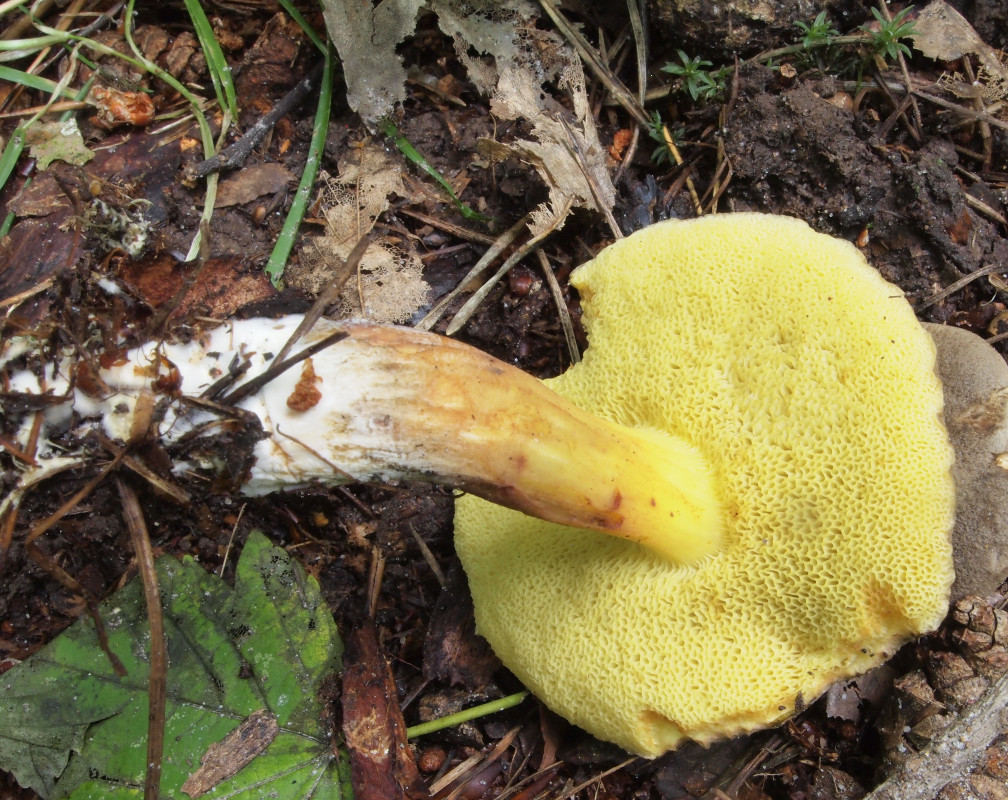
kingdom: Fungi
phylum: Basidiomycota
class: Agaricomycetes
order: Boletales
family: Boletaceae
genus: Xerocomellus
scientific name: Xerocomellus
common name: dværgrørhat
